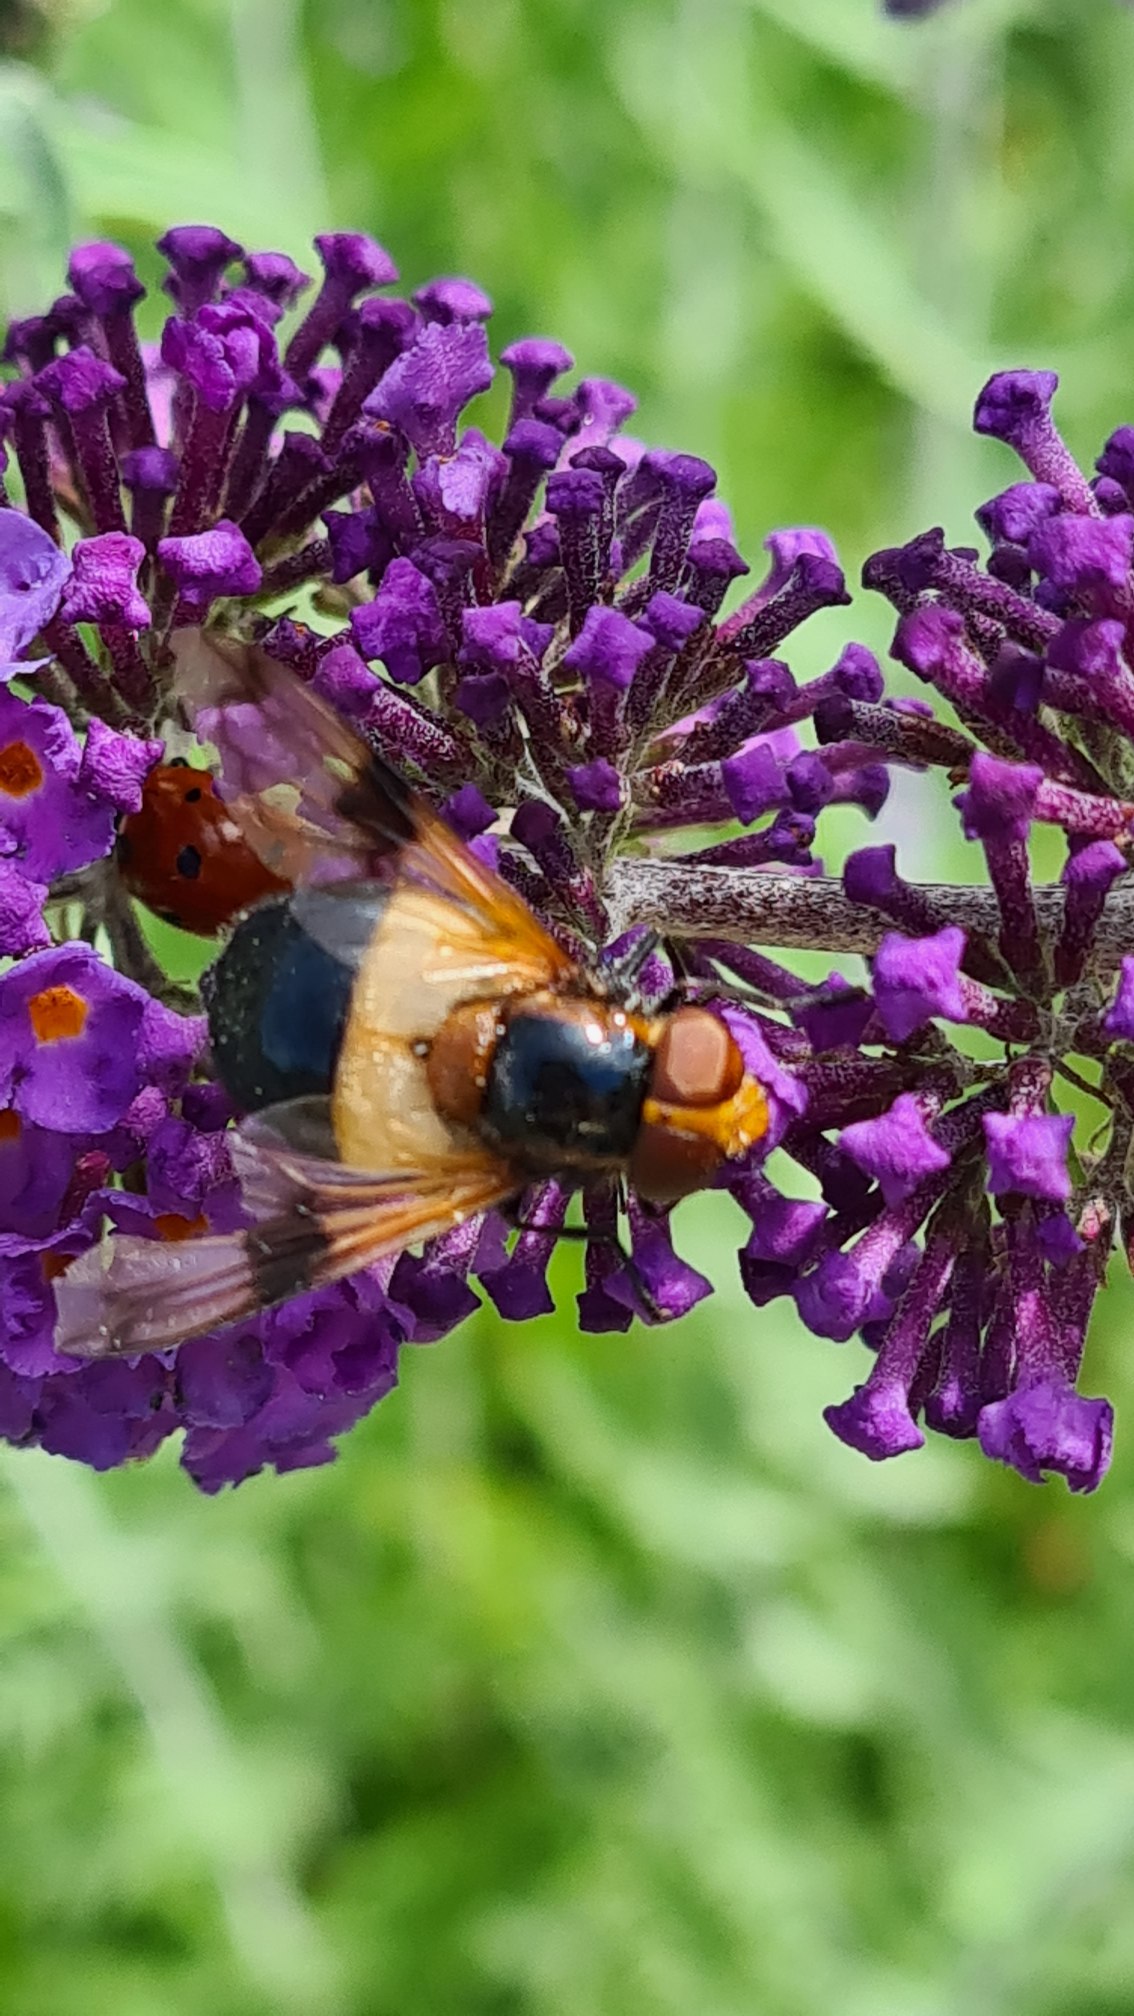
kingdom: Animalia
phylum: Arthropoda
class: Insecta
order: Diptera
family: Syrphidae
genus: Volucella
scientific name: Volucella pellucens
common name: Hvidbåndet humlesvirreflue
